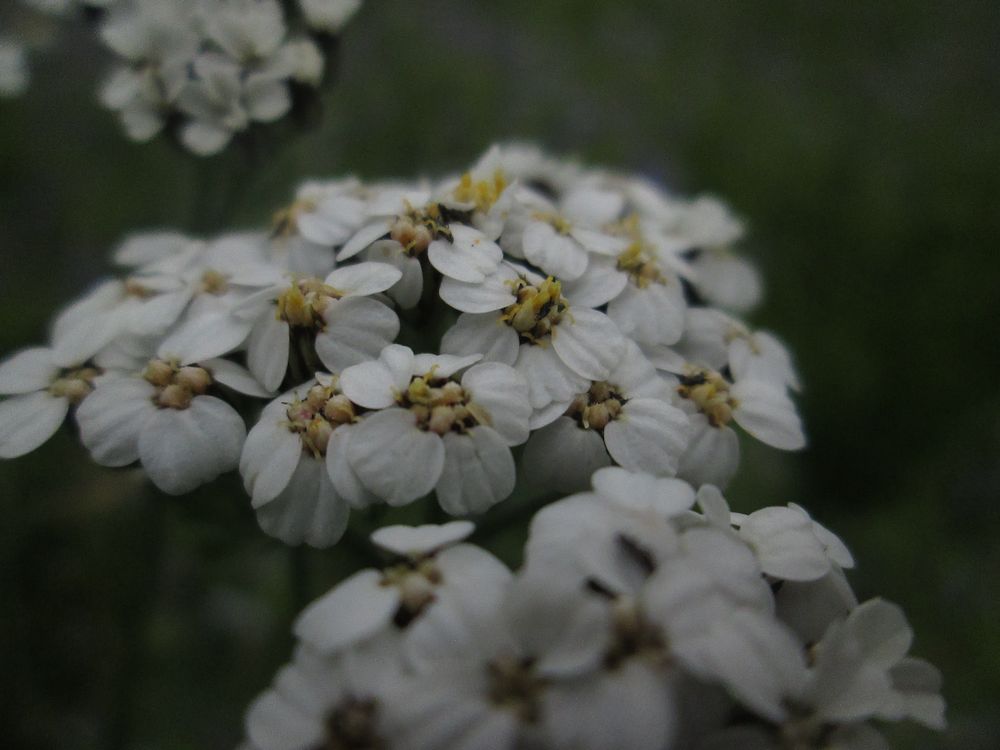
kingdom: Plantae
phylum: Tracheophyta
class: Magnoliopsida
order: Asterales
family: Asteraceae
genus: Achillea
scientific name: Achillea millefolium
